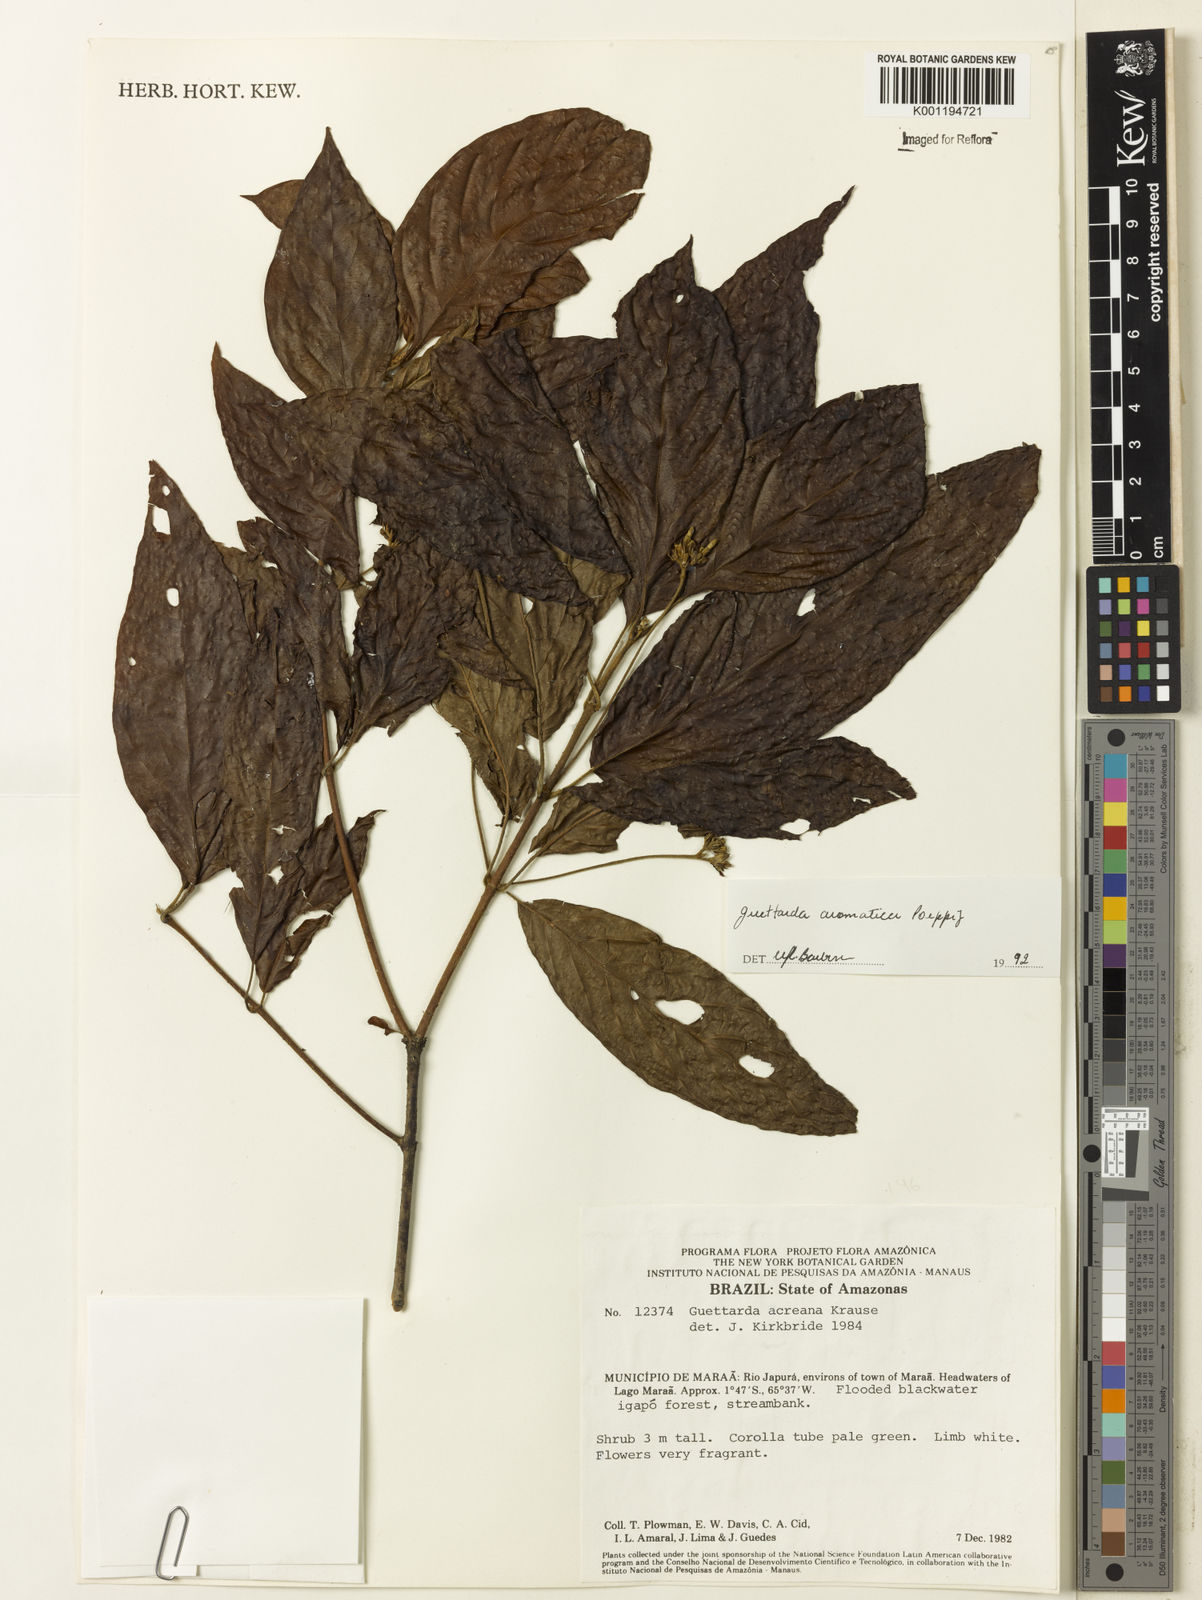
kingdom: Plantae
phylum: Tracheophyta
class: Magnoliopsida
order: Gentianales
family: Rubiaceae
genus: Guettarda
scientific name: Guettarda aromatica
